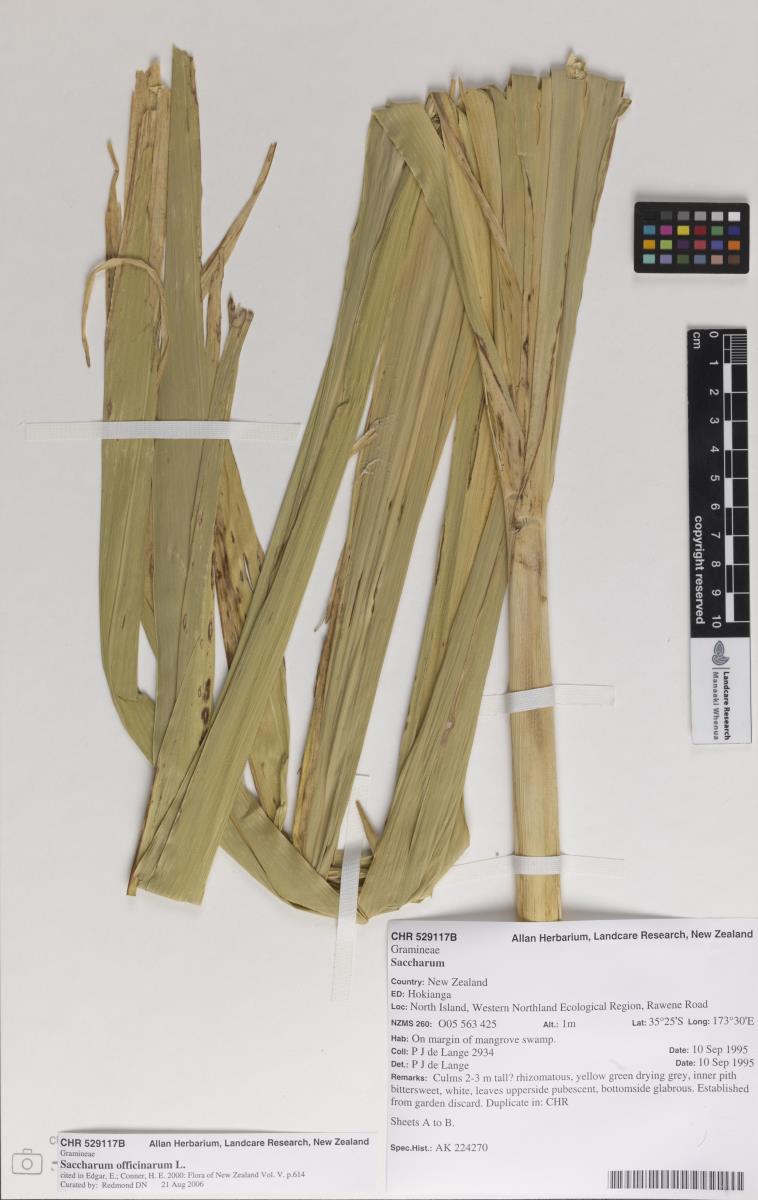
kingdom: Plantae
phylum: Tracheophyta
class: Liliopsida
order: Poales
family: Poaceae
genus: Saccharum
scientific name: Saccharum officinarum
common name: Sugarcane
